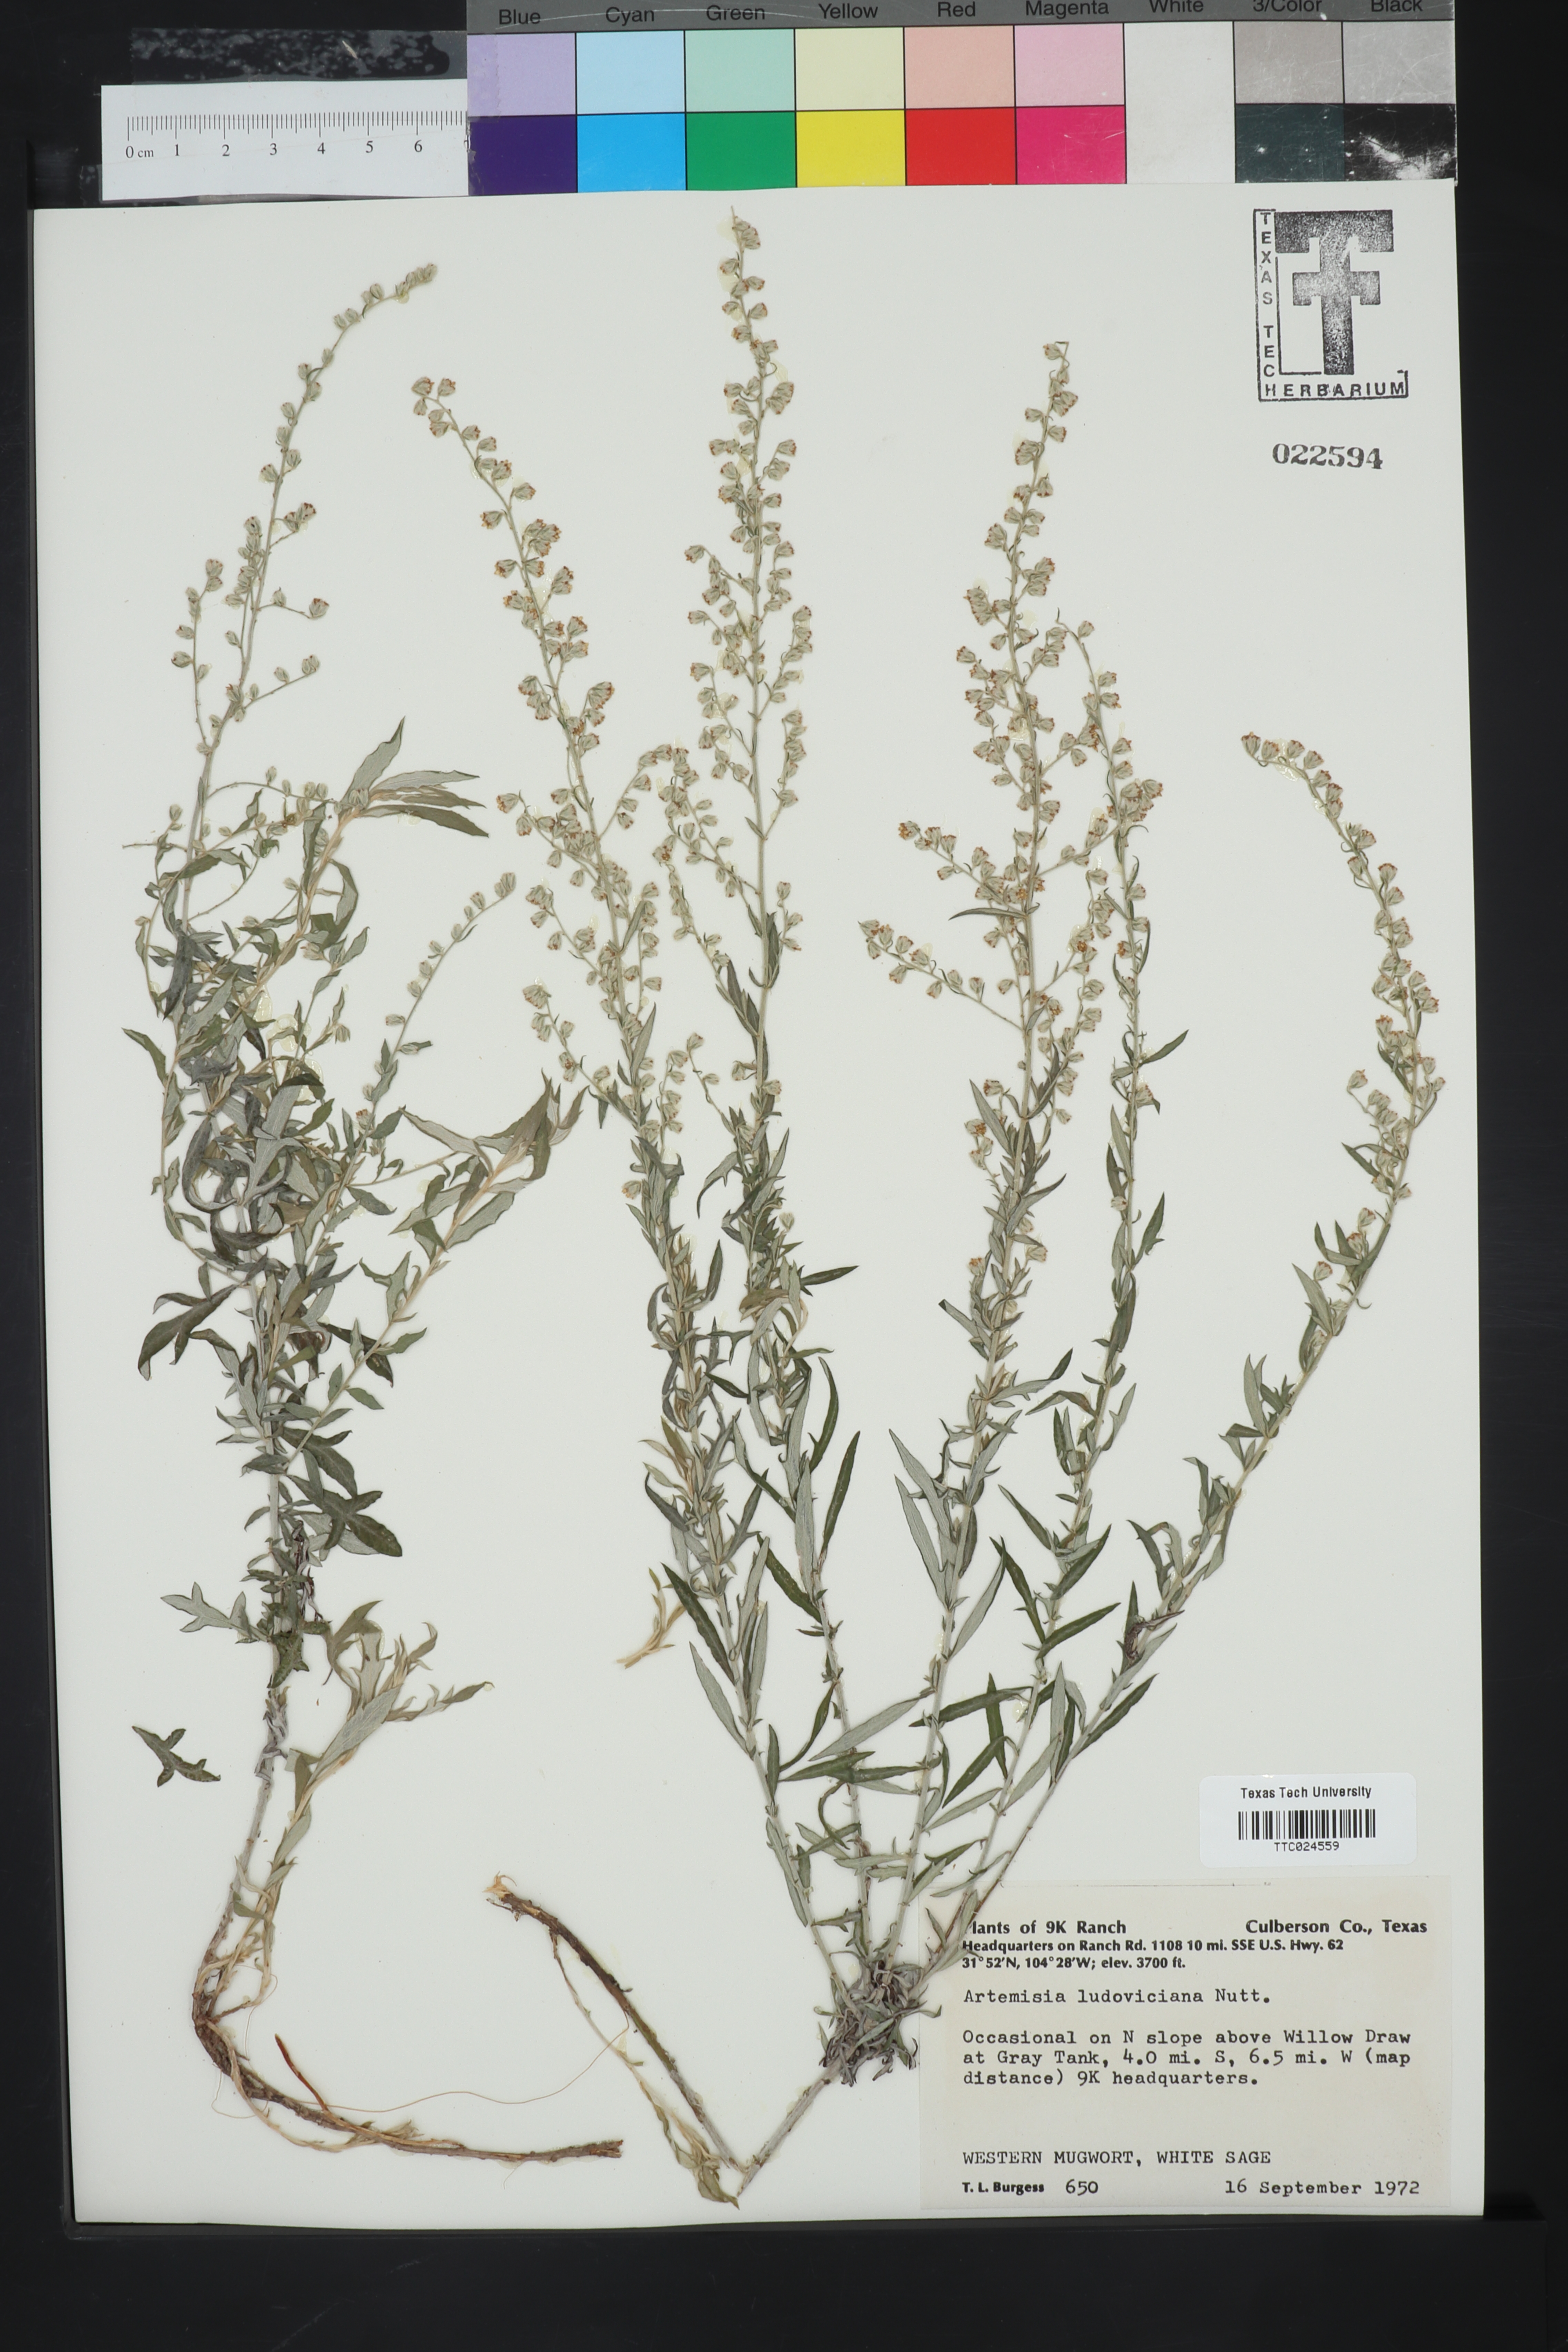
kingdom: Plantae
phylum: Tracheophyta
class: Magnoliopsida
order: Asterales
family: Asteraceae
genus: Artemisia
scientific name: Artemisia ludoviciana
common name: Western mugwort
